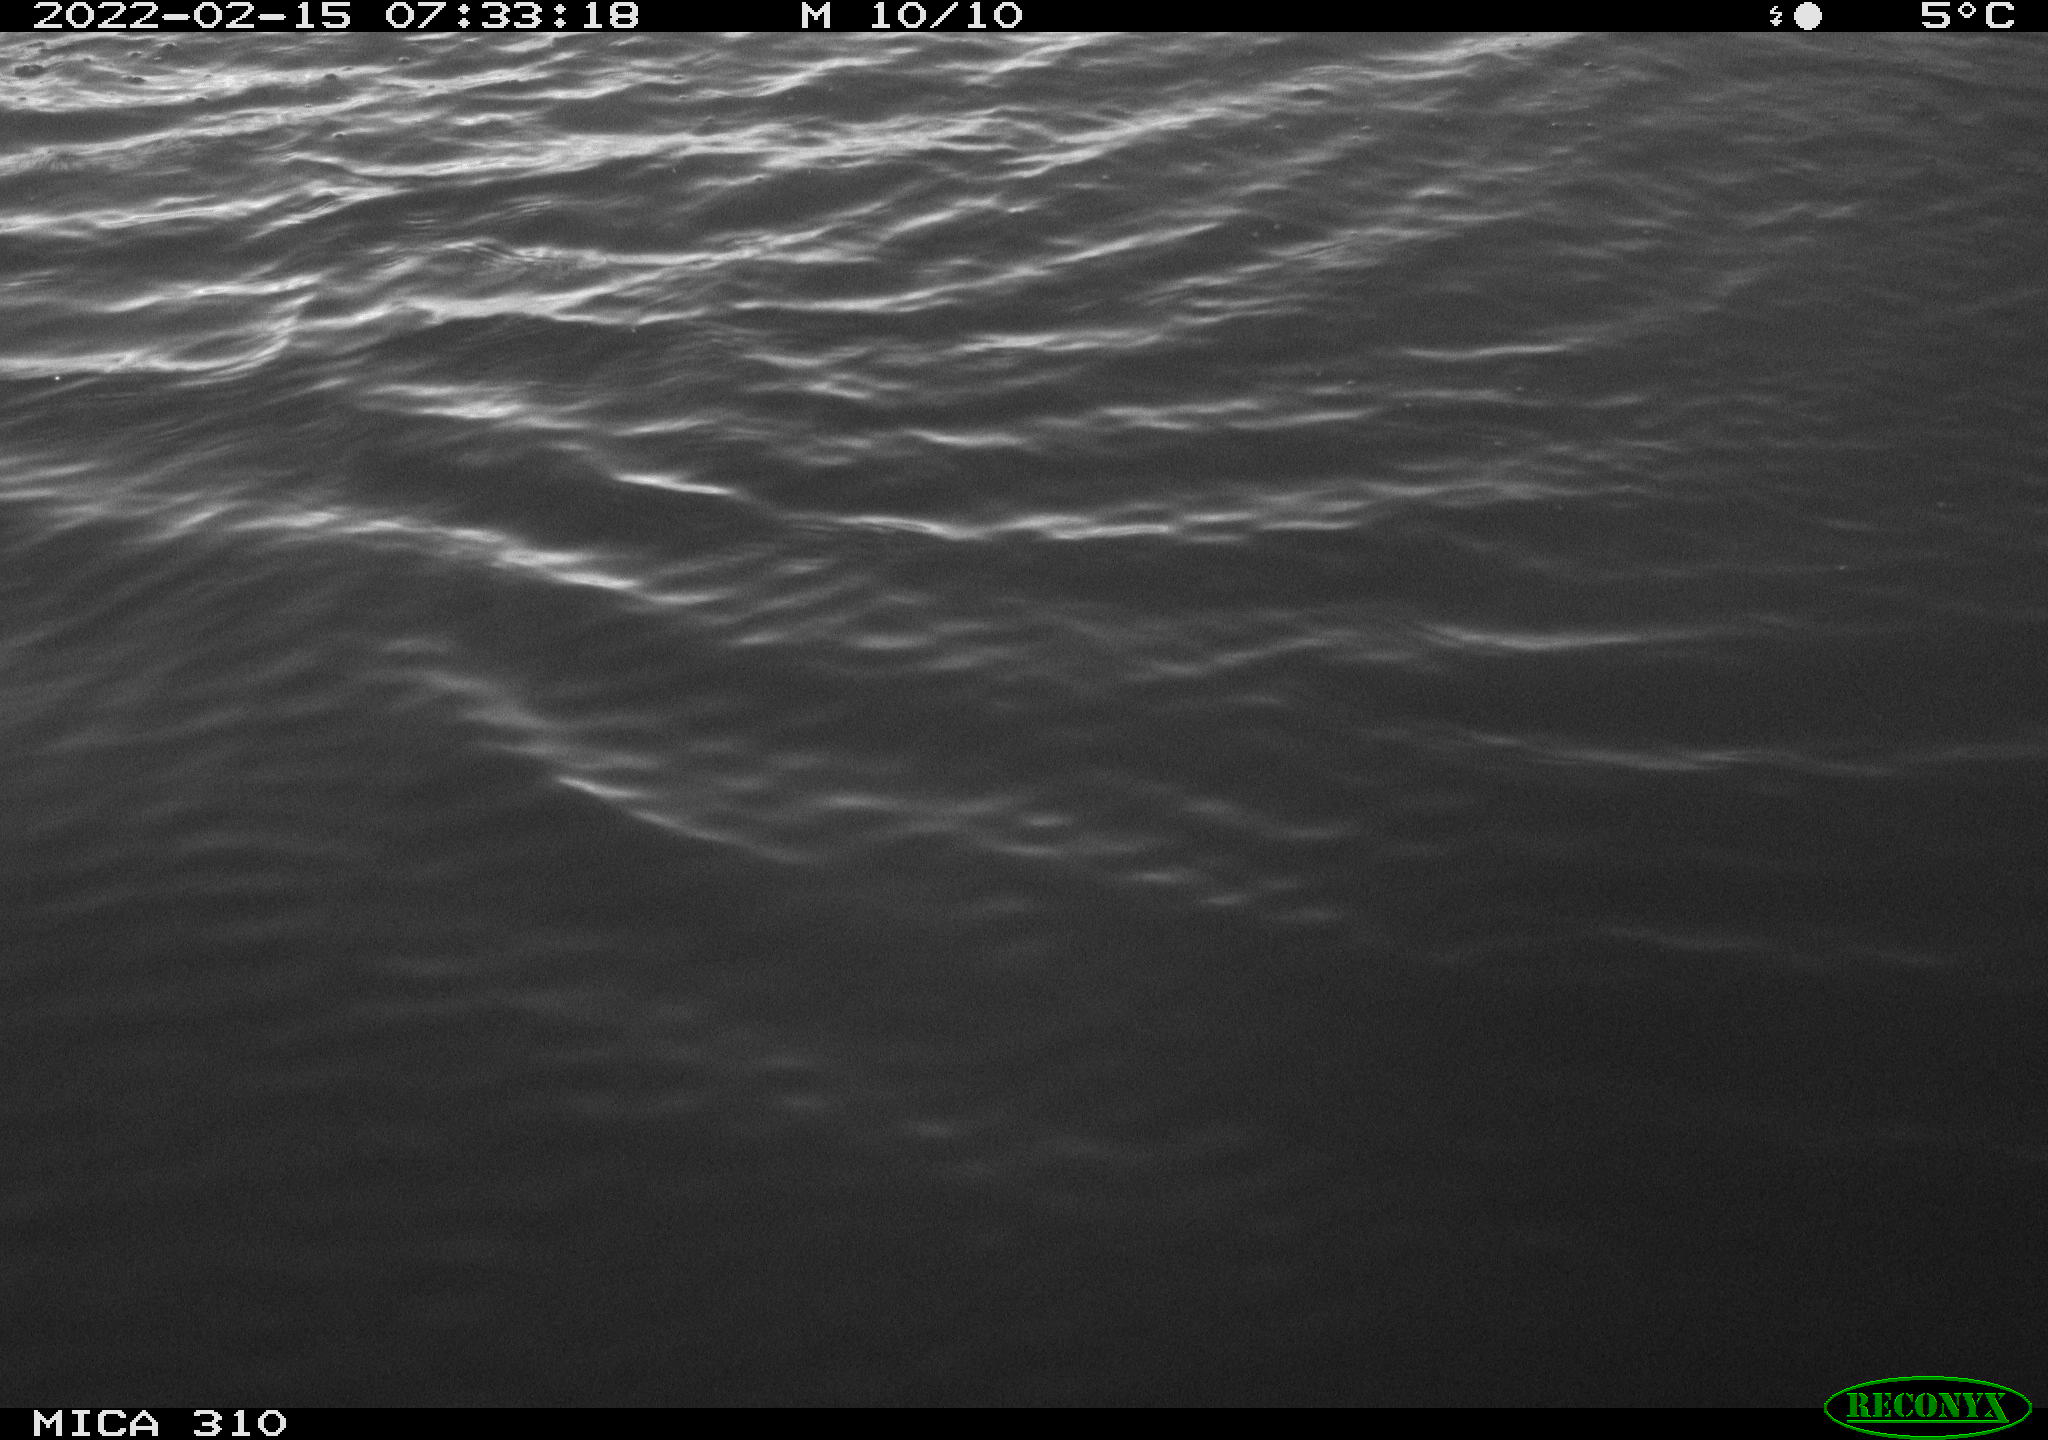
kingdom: Animalia
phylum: Chordata
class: Aves
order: Gruiformes
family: Rallidae
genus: Fulica
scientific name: Fulica atra
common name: Eurasian coot
